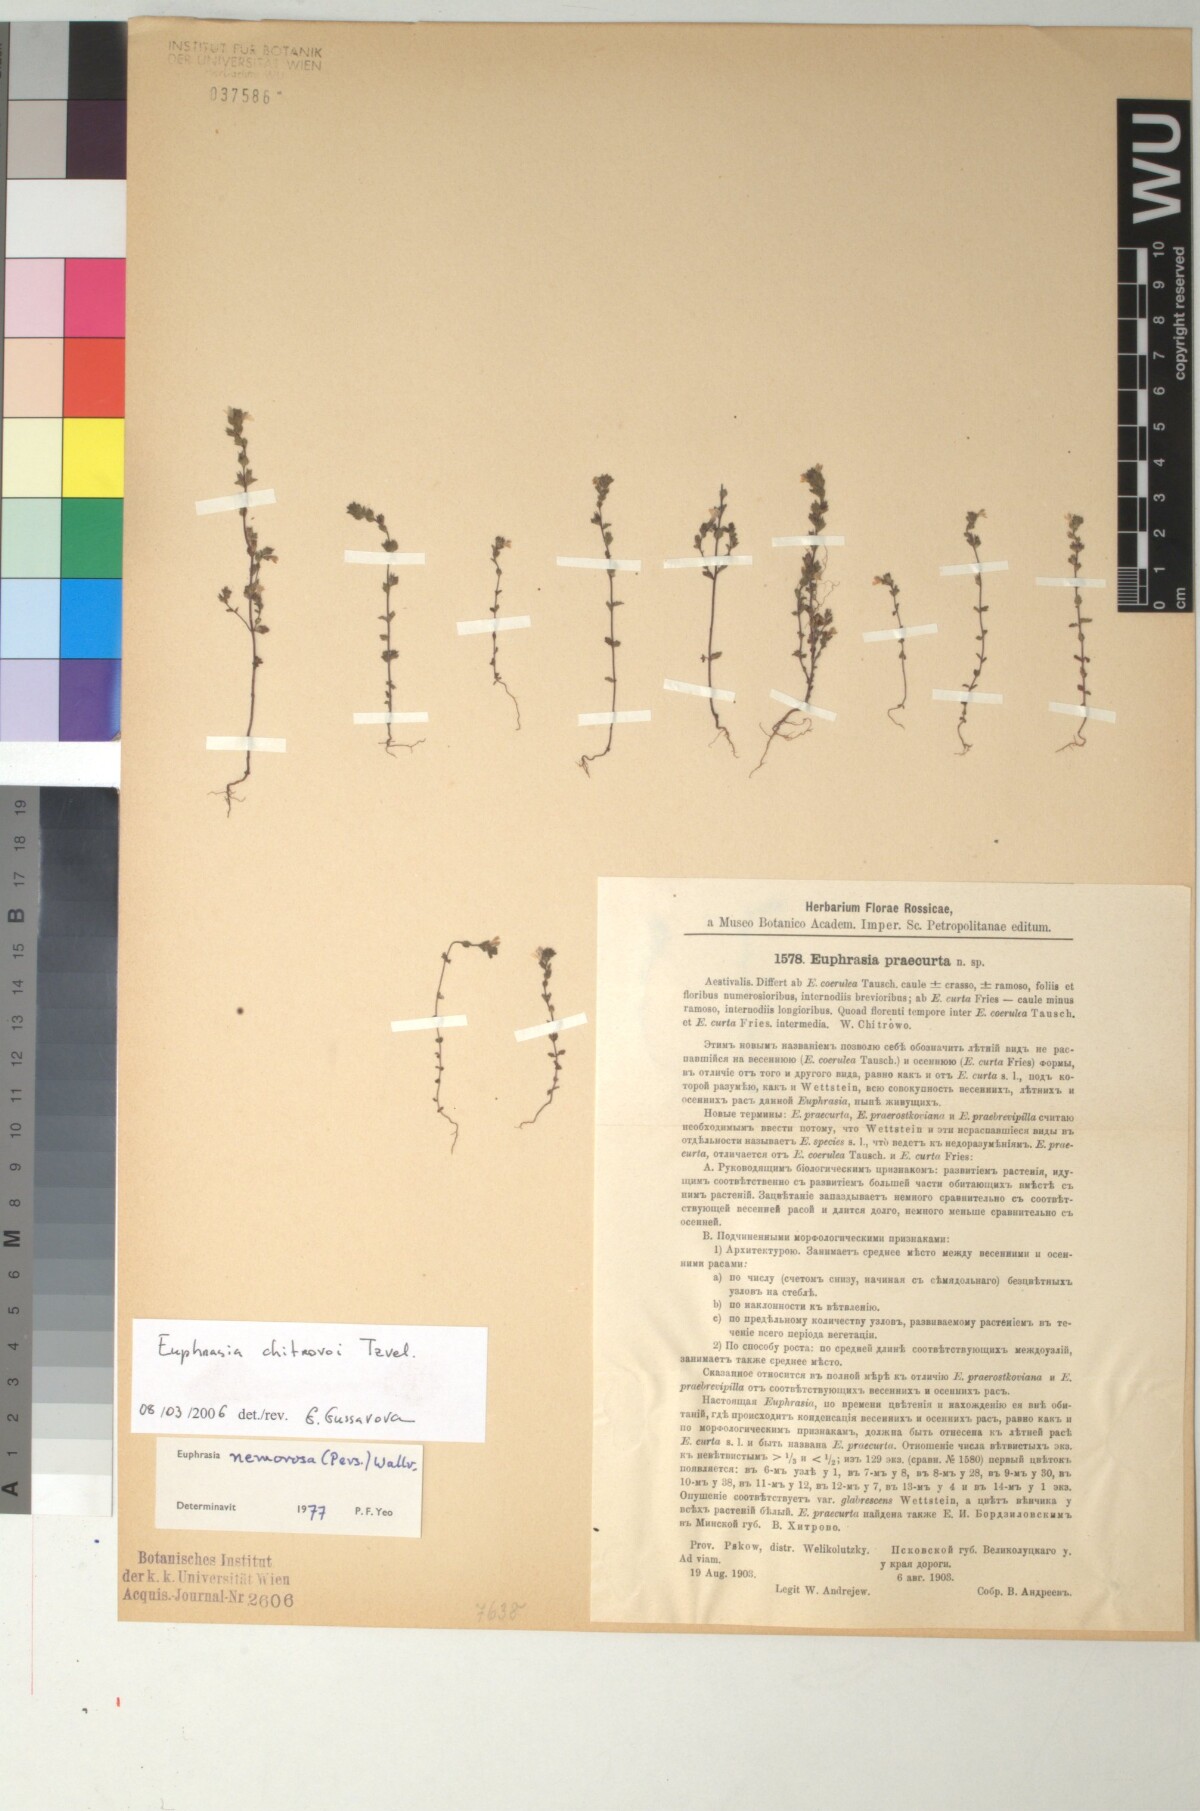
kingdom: Plantae
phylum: Tracheophyta
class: Magnoliopsida
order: Lamiales
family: Orobanchaceae
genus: Euphrasia
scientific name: Euphrasia micrantha
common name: Northern eyebright
